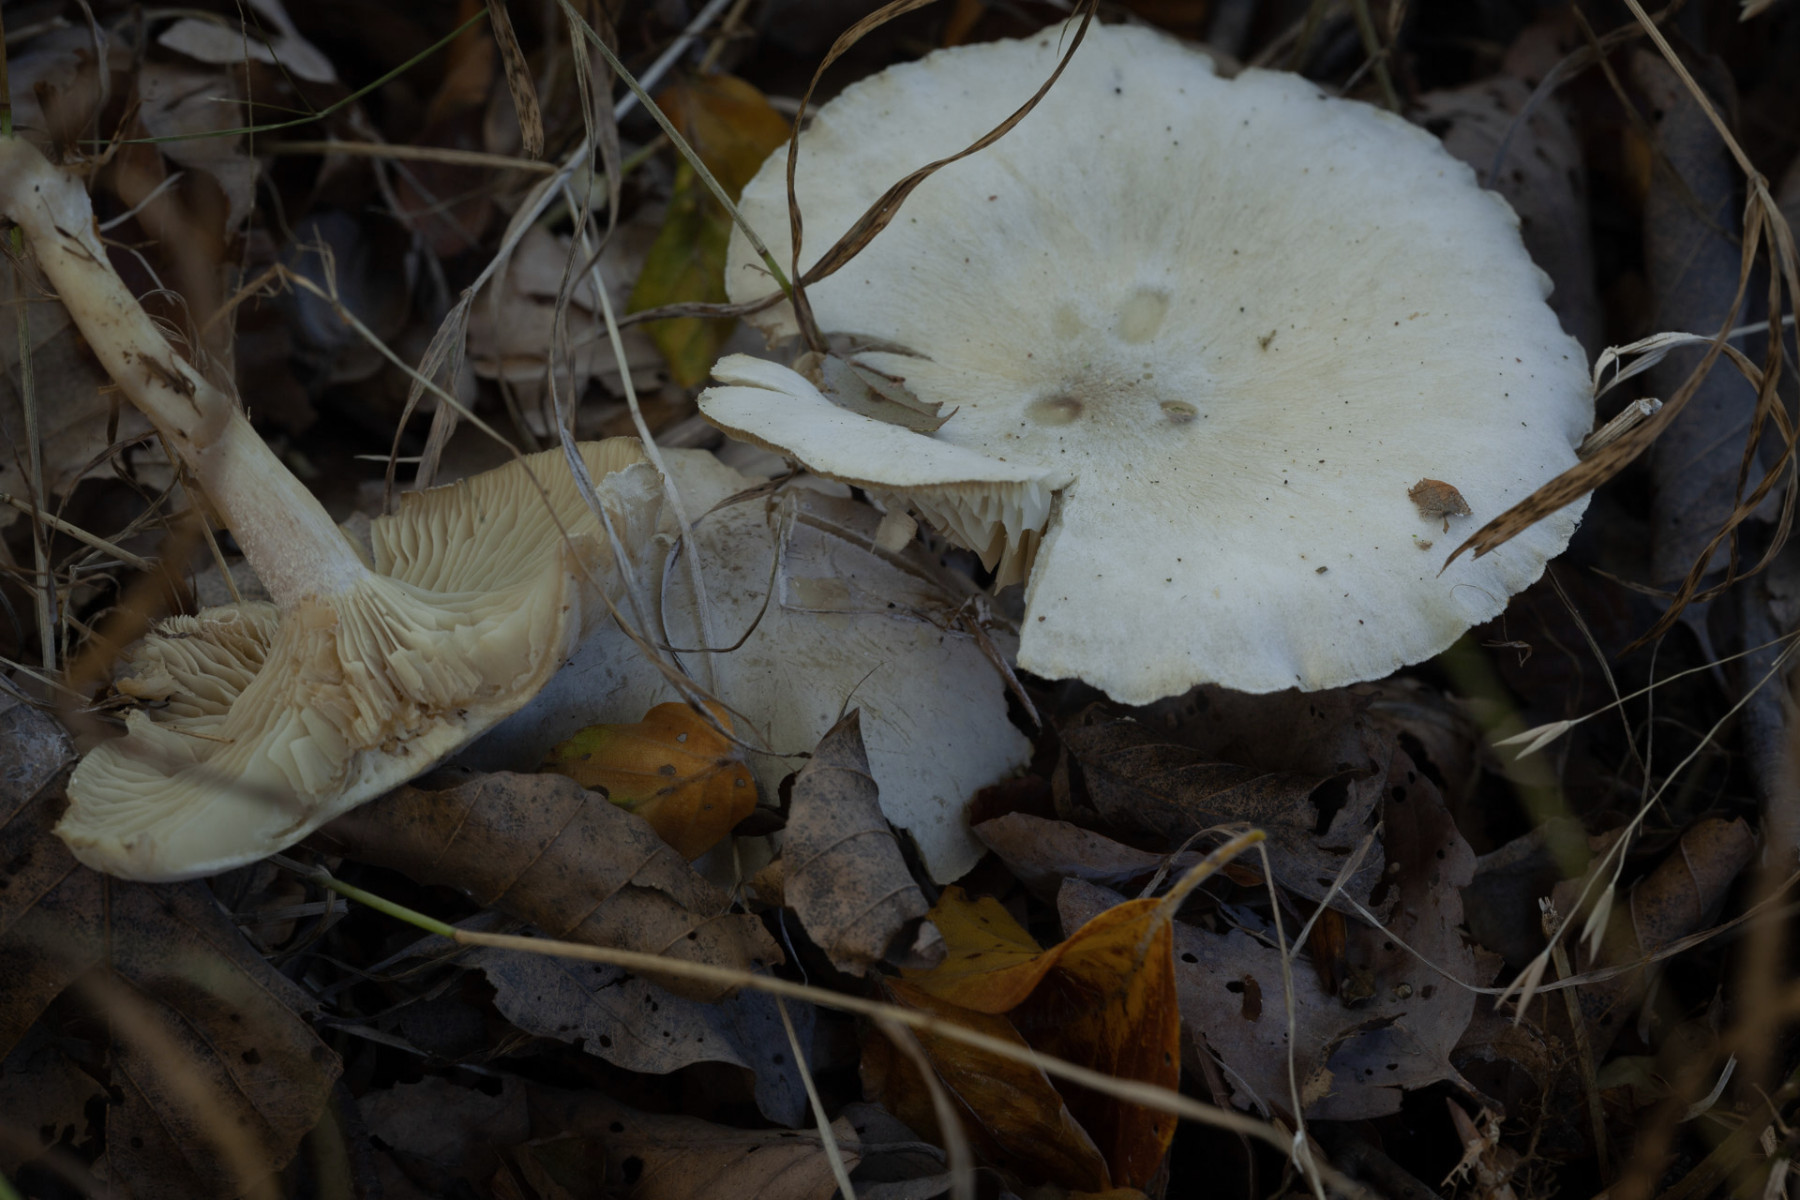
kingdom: Fungi
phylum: Basidiomycota
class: Agaricomycetes
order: Agaricales
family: Tricholomataceae
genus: Clitocybe
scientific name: Clitocybe odora
